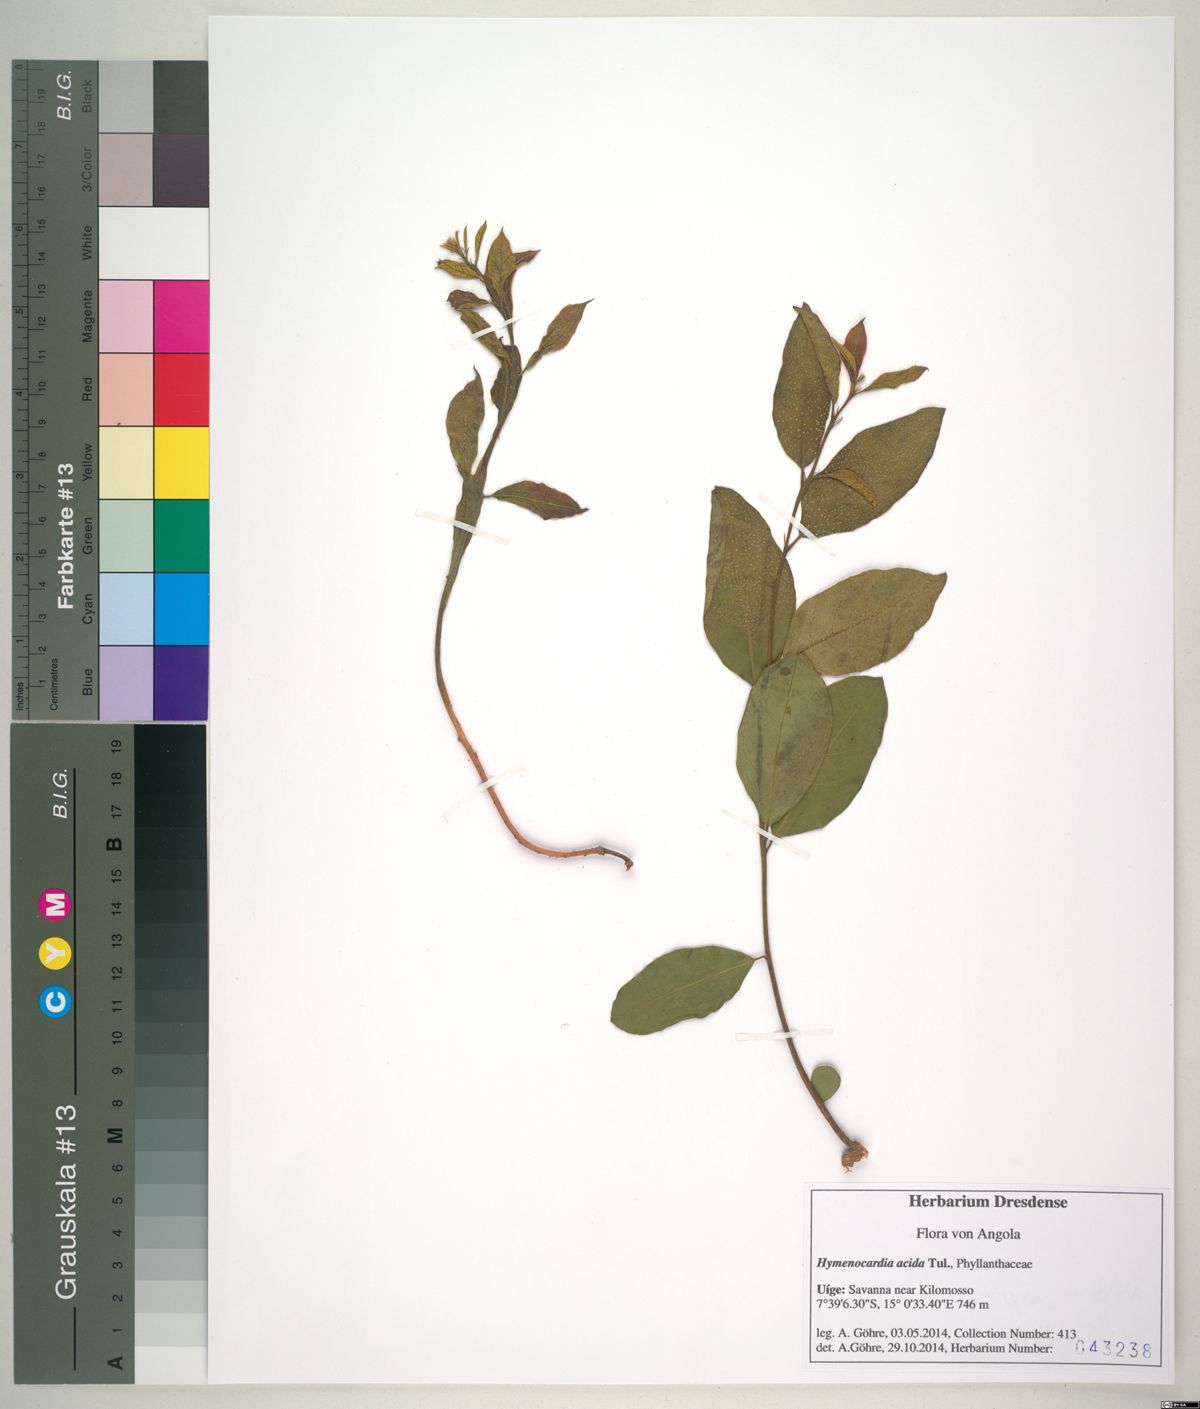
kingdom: Plantae
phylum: Tracheophyta
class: Magnoliopsida
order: Malpighiales
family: Phyllanthaceae
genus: Hymenocardia
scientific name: Hymenocardia acida
